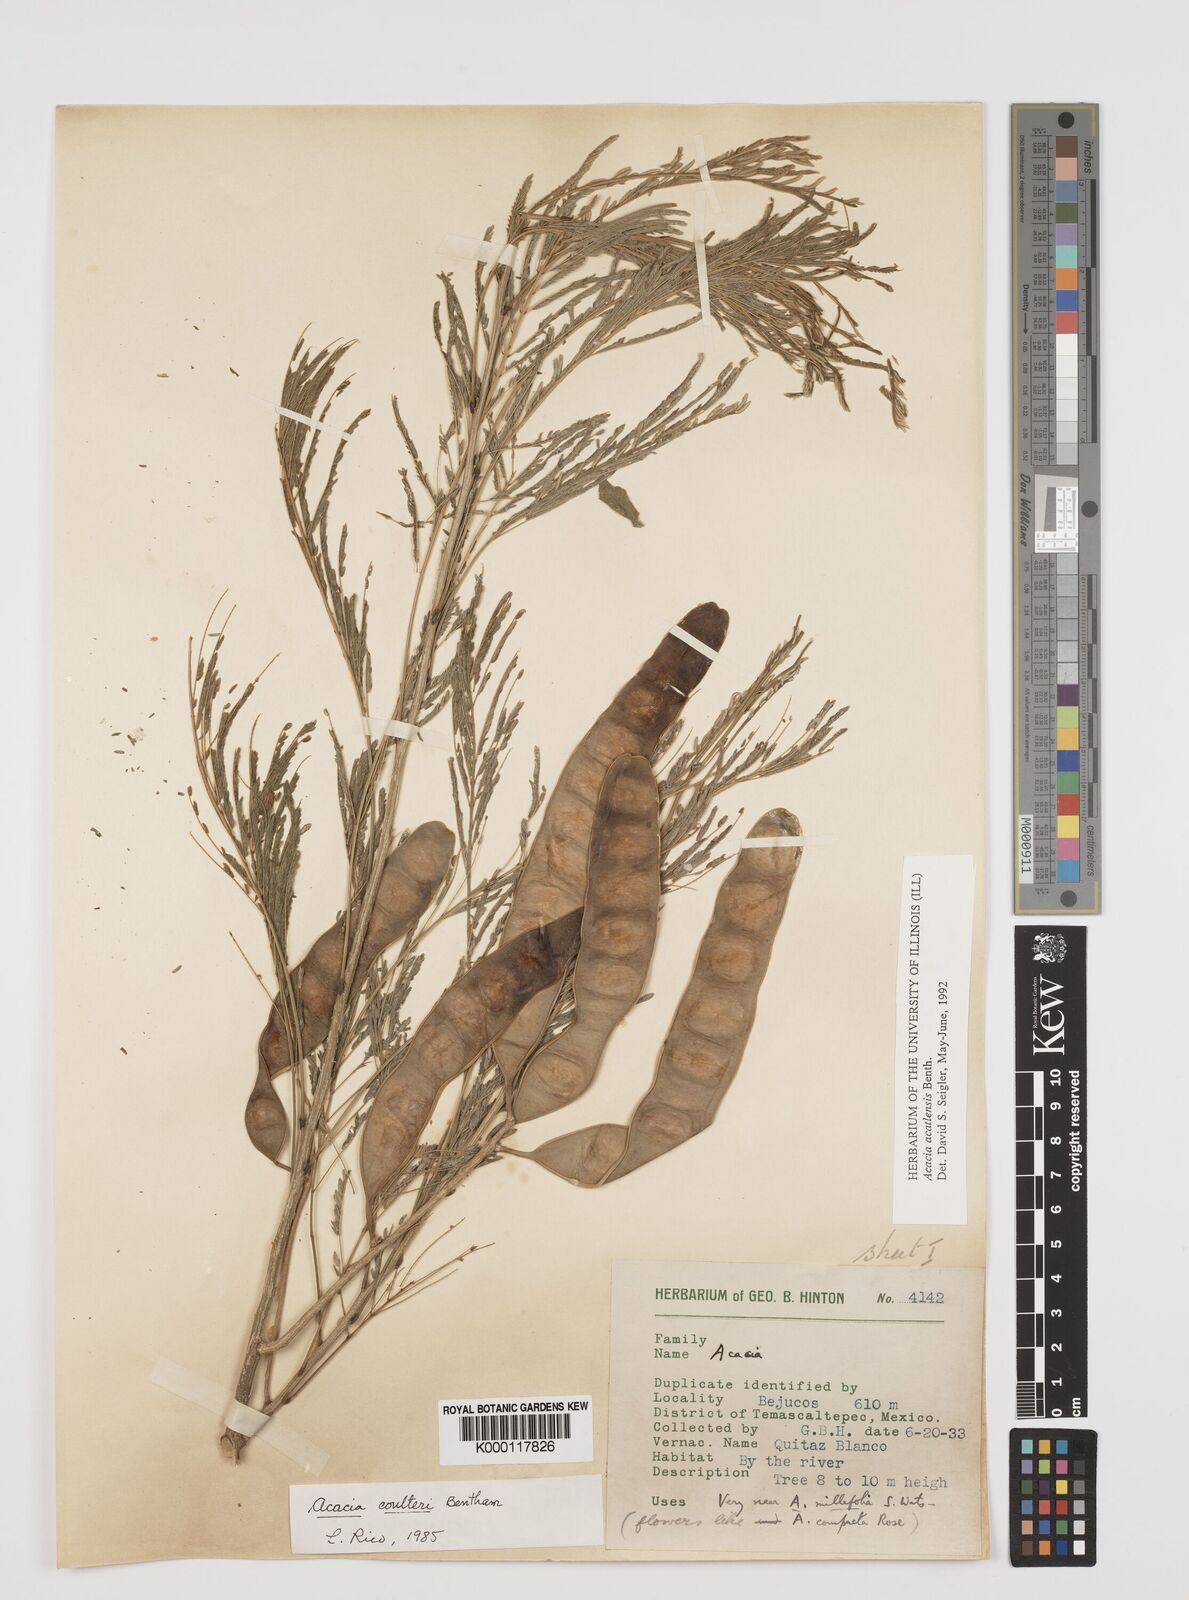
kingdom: Plantae
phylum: Tracheophyta
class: Magnoliopsida
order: Fabales
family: Fabaceae
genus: Mariosousa
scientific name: Mariosousa acatlensis
